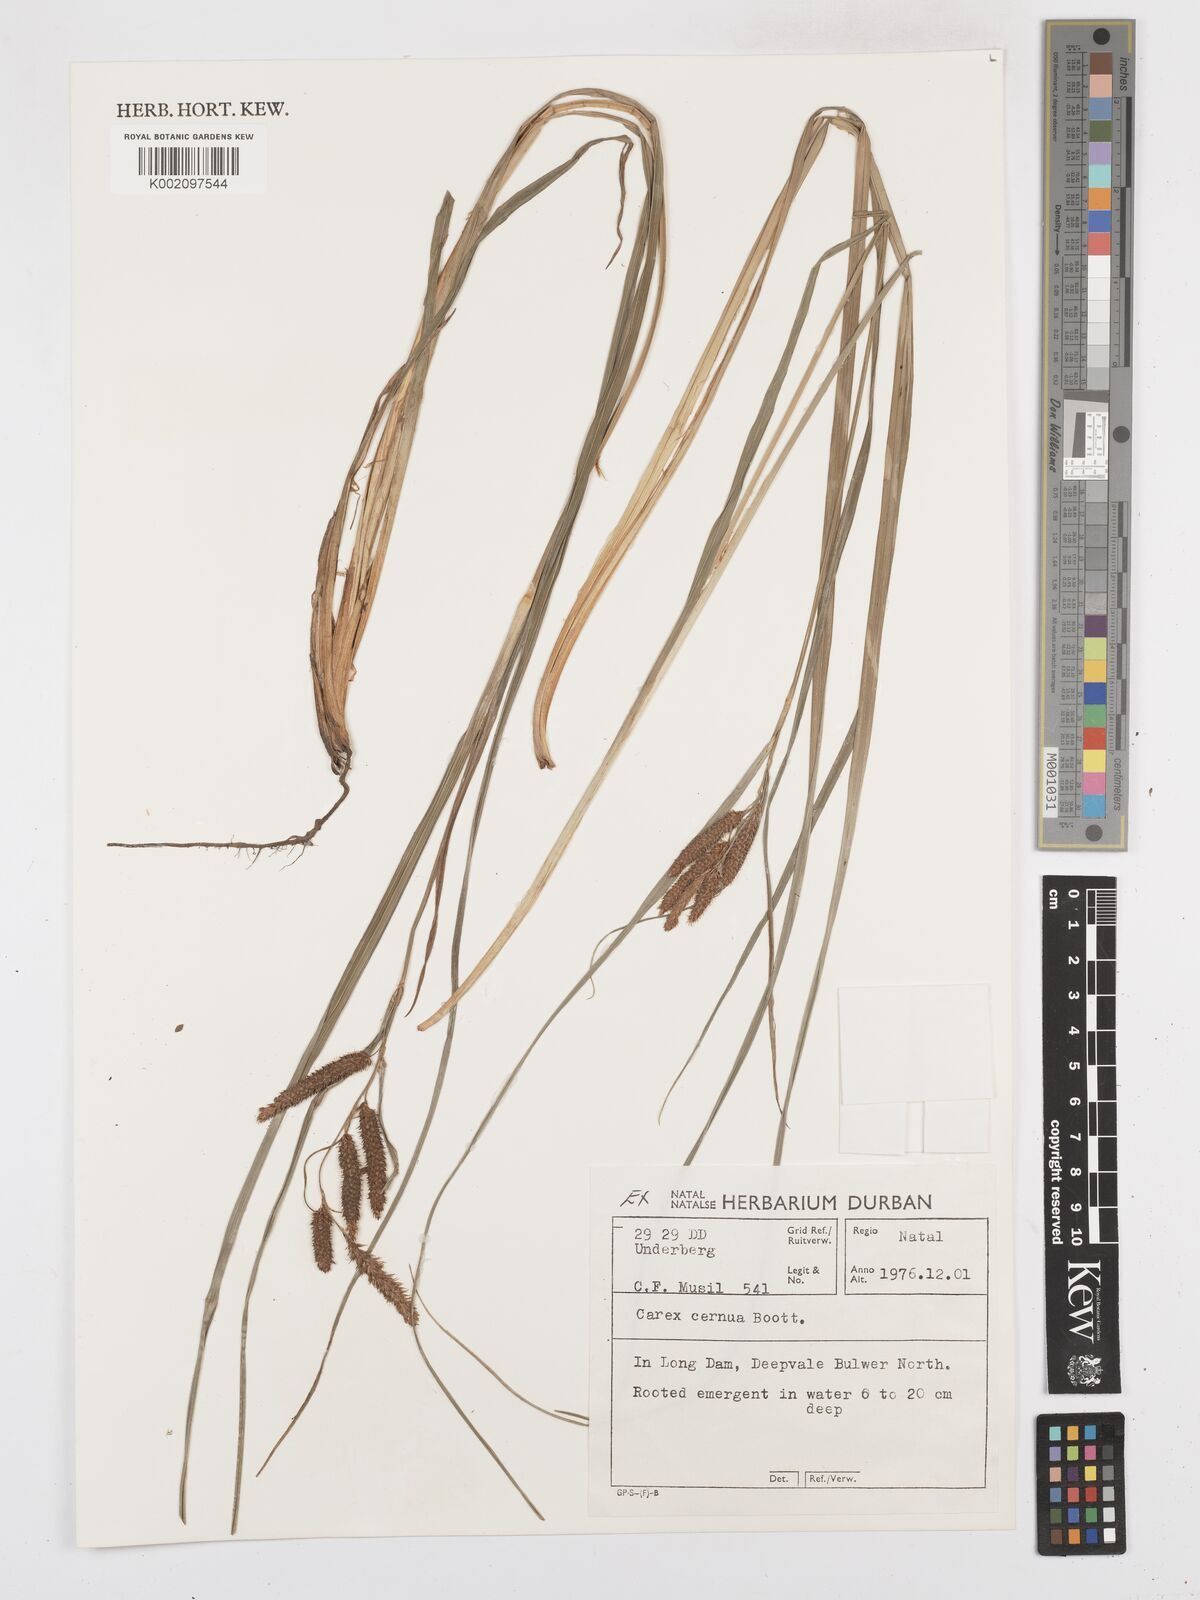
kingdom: Plantae
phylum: Tracheophyta
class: Liliopsida
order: Poales
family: Cyperaceae
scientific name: Cyperaceae
